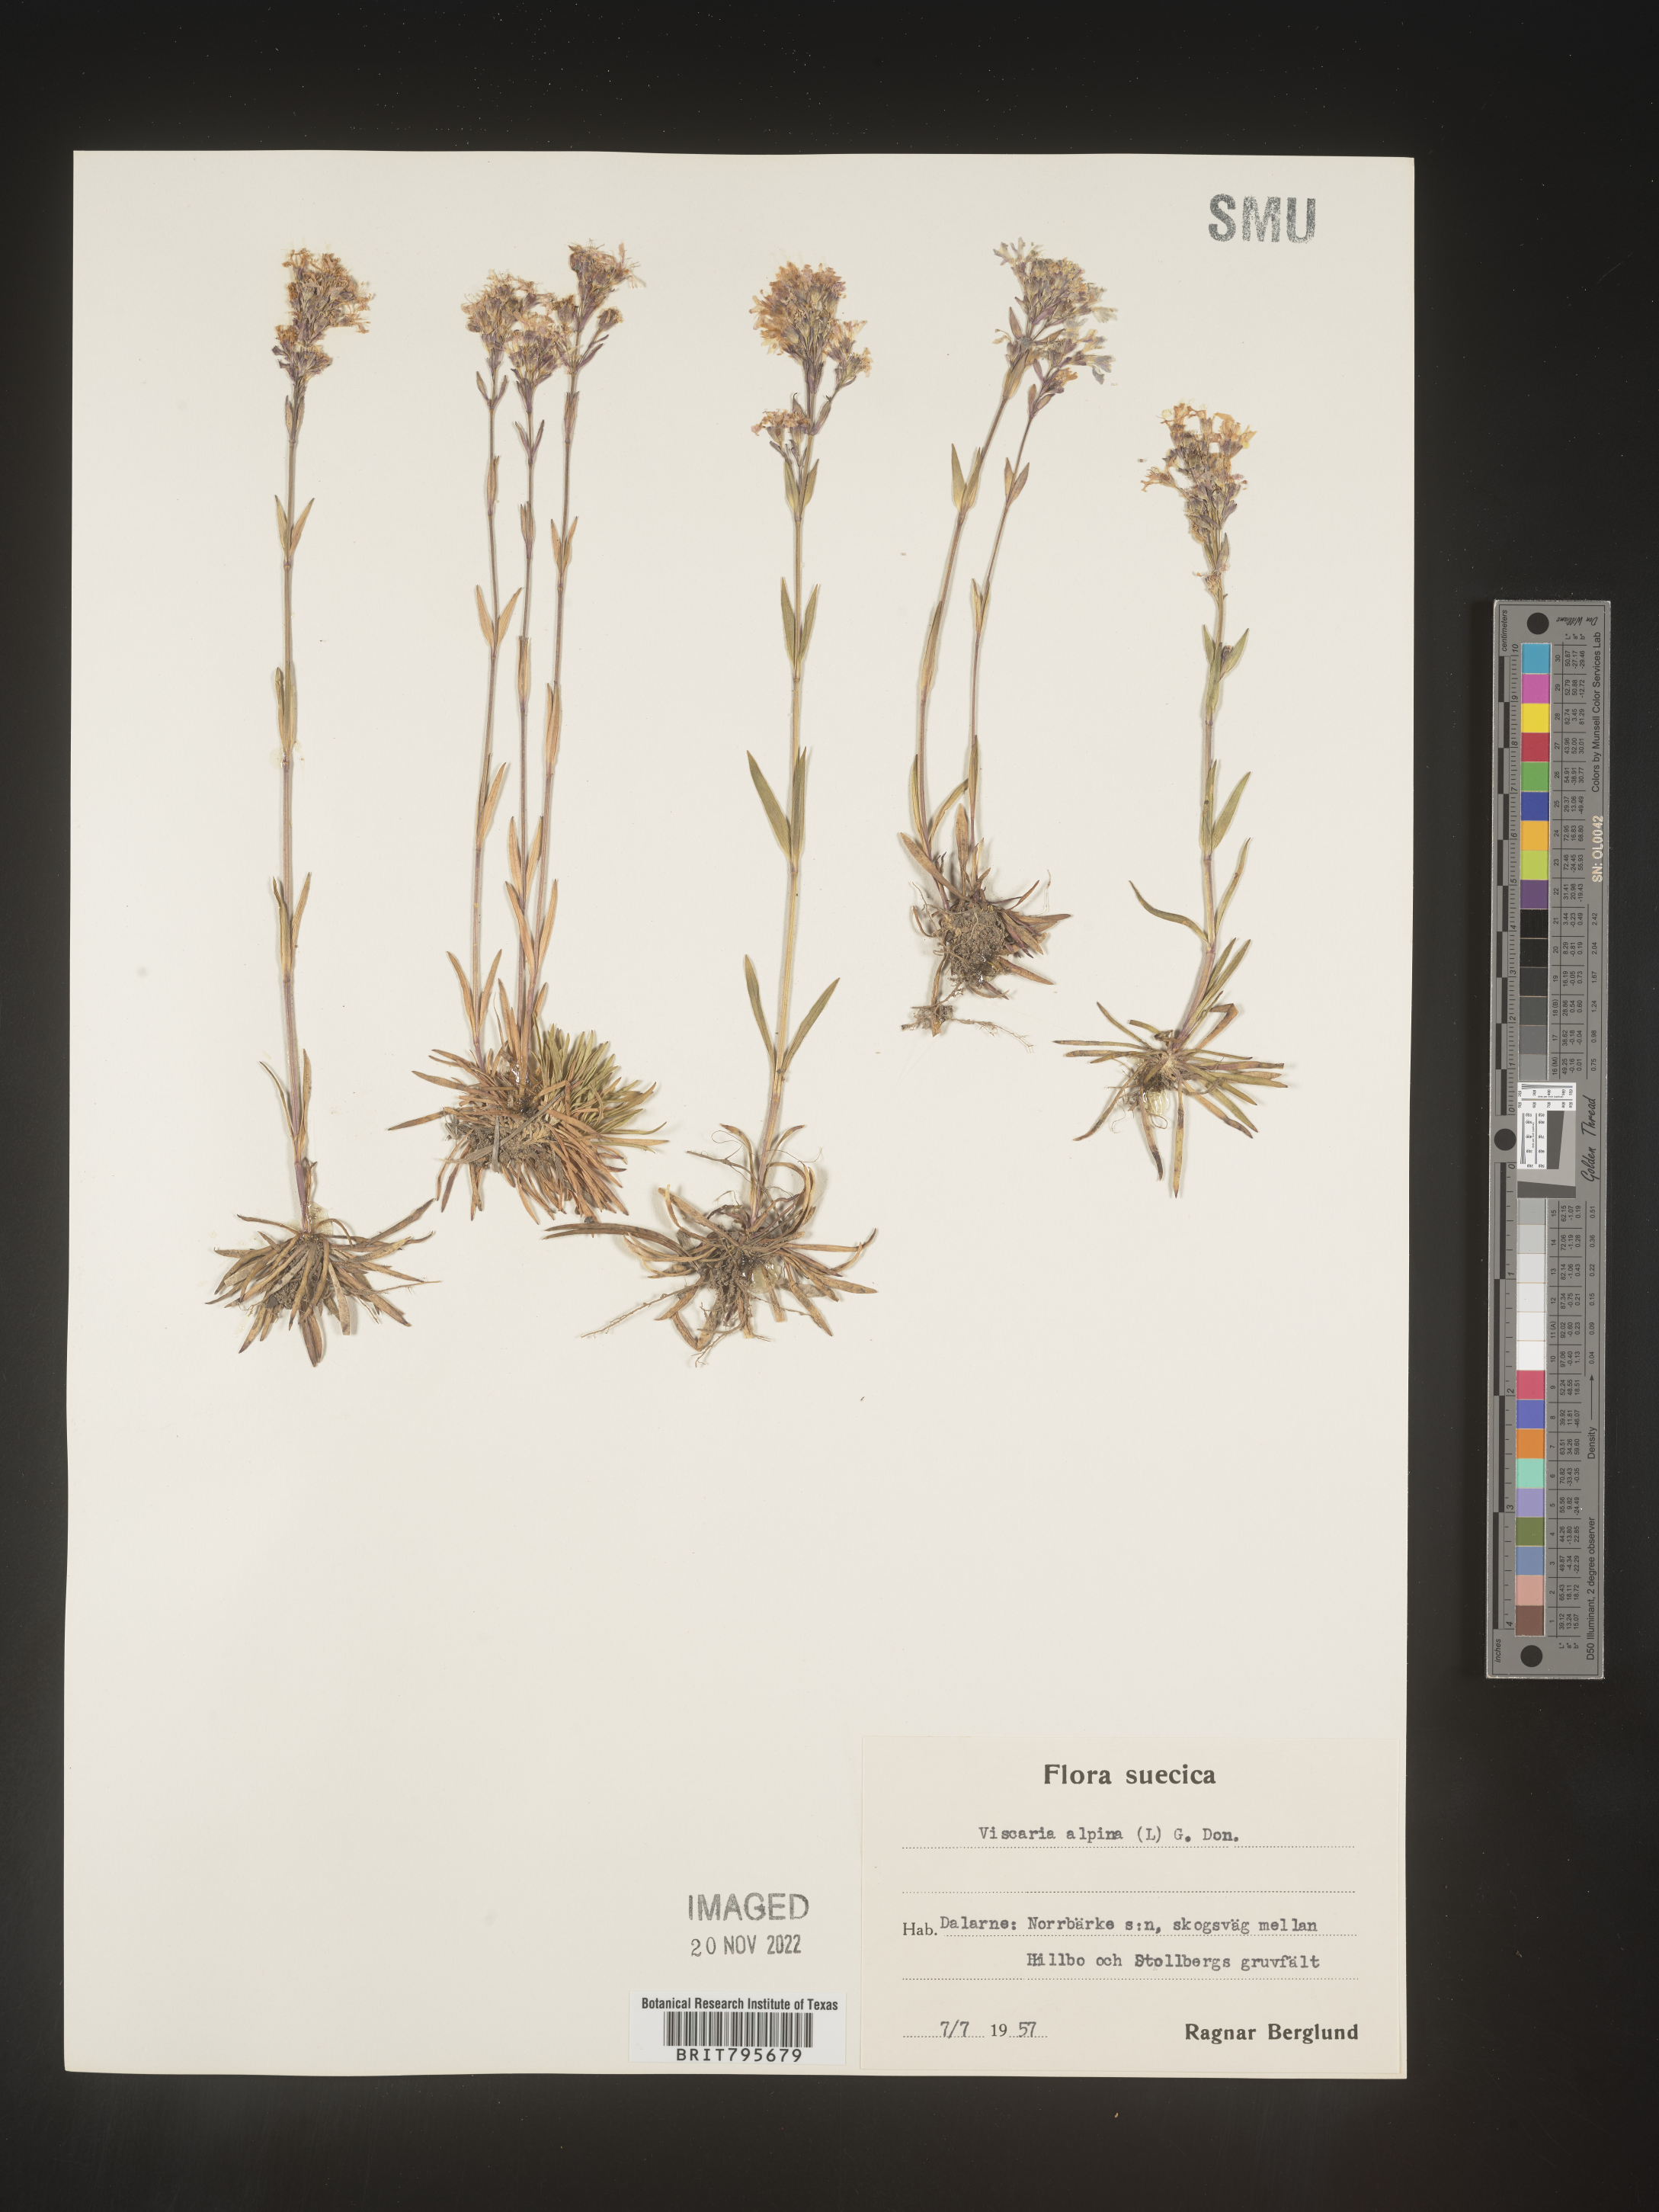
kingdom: Plantae
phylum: Tracheophyta
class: Magnoliopsida
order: Caryophyllales
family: Caryophyllaceae
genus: Viscaria
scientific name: Viscaria
